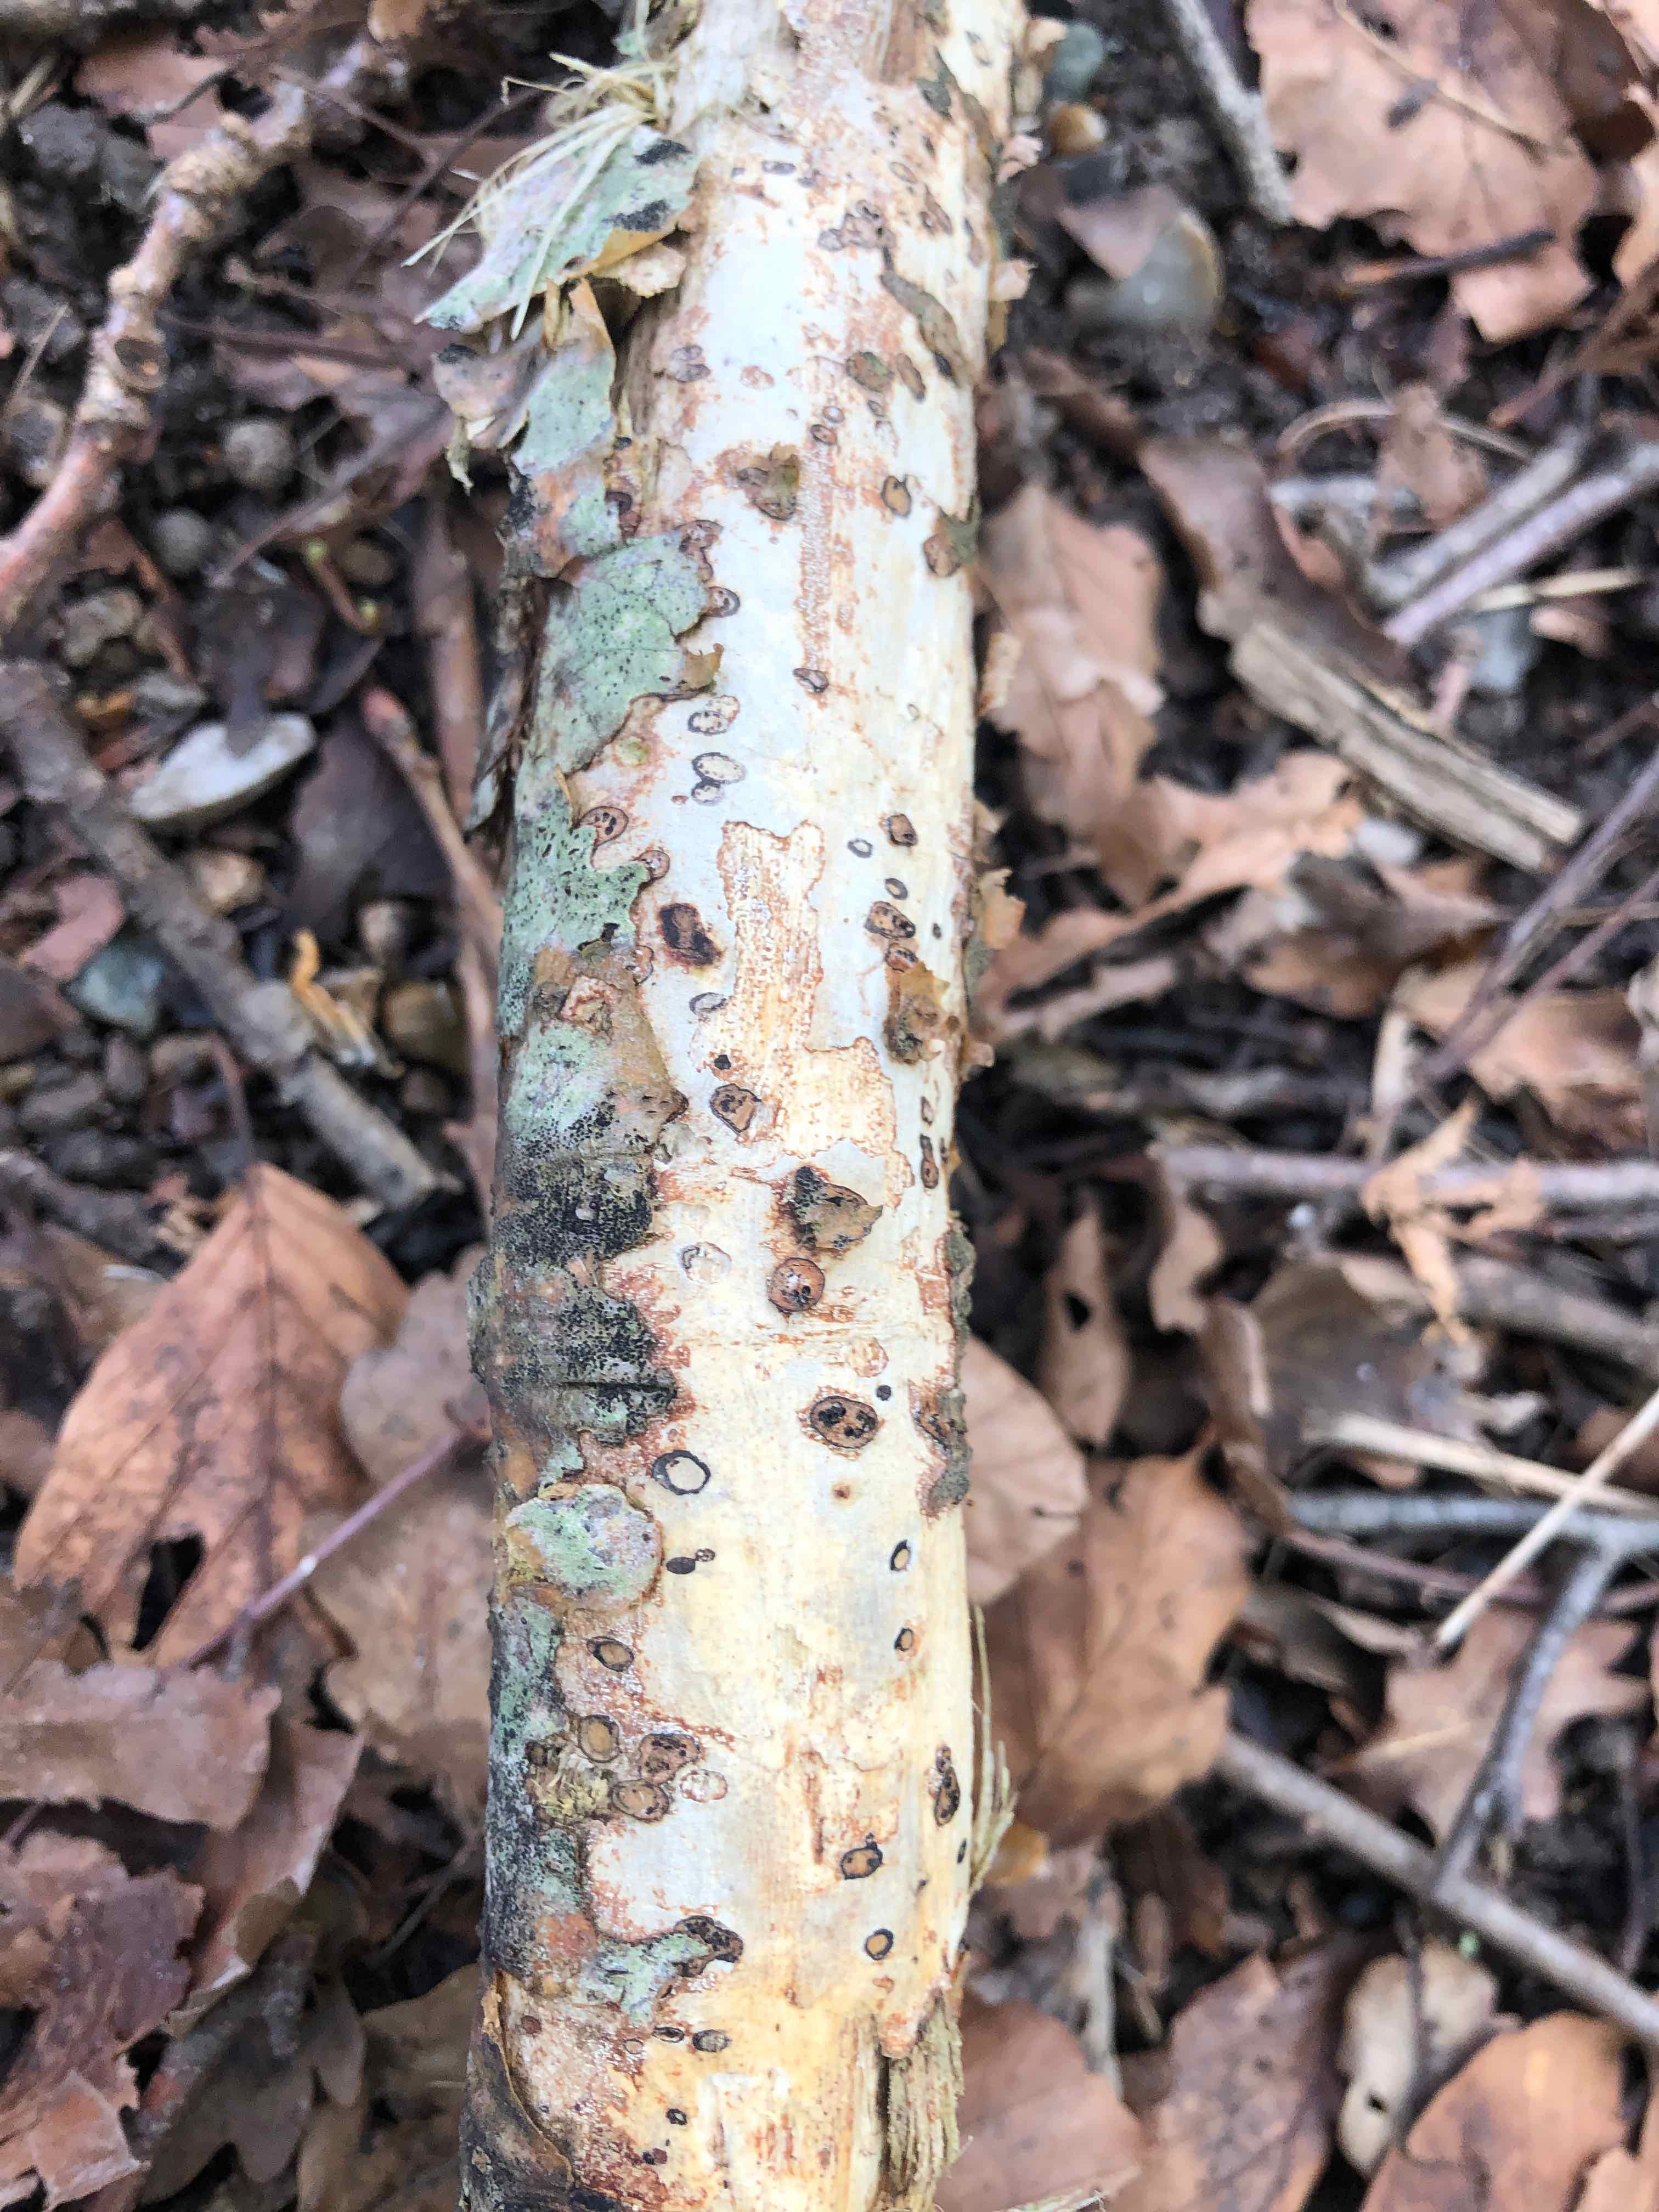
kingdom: Fungi
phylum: Basidiomycota
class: Agaricomycetes
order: Corticiales
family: Vuilleminiaceae
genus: Vuilleminia
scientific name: Vuilleminia comedens
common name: almindelig barksprænger
